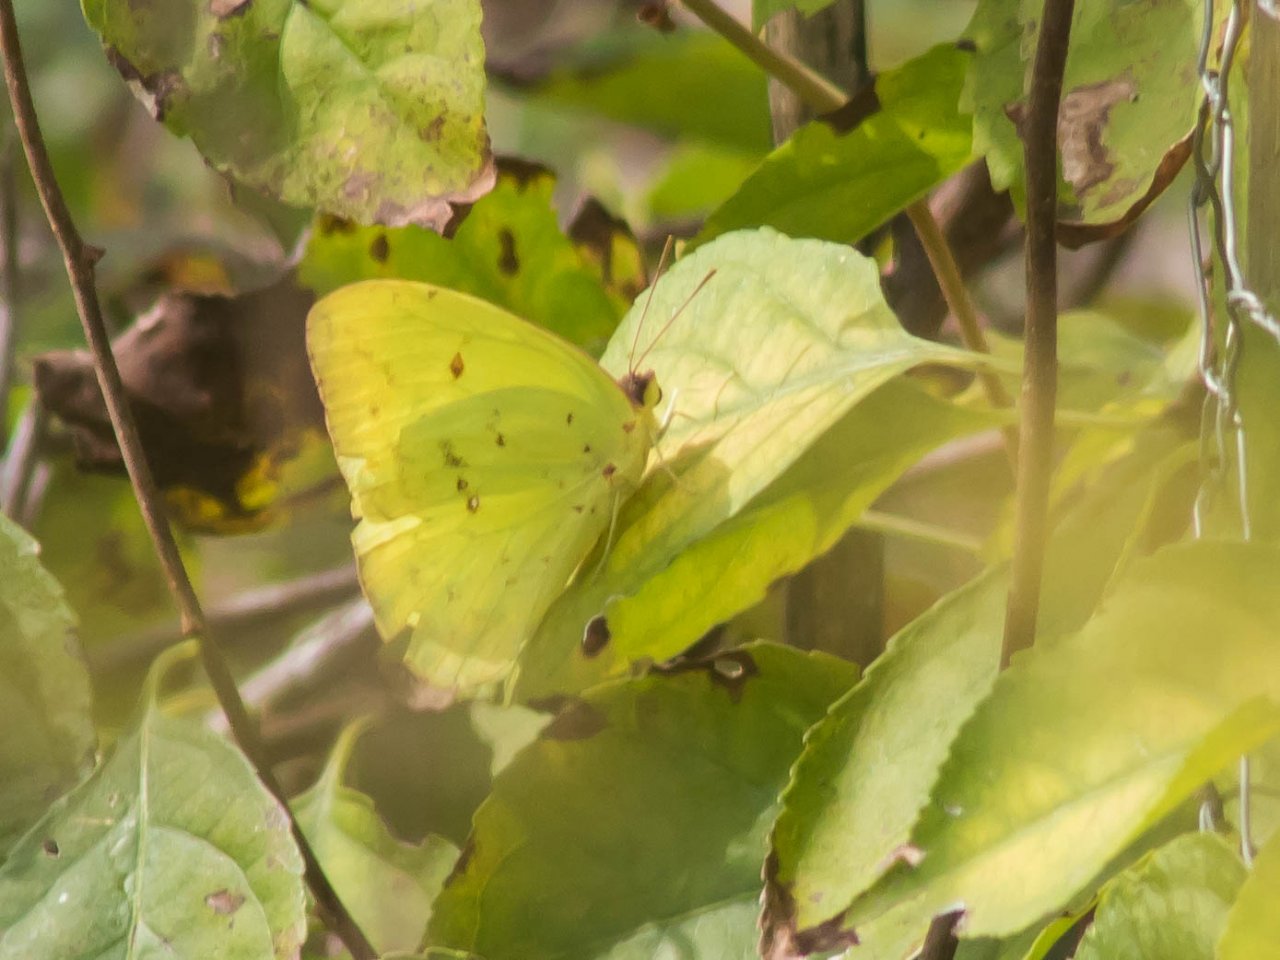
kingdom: Animalia
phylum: Arthropoda
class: Insecta
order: Lepidoptera
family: Pieridae
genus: Phoebis
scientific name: Phoebis sennae
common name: Cloudless Sulphur
